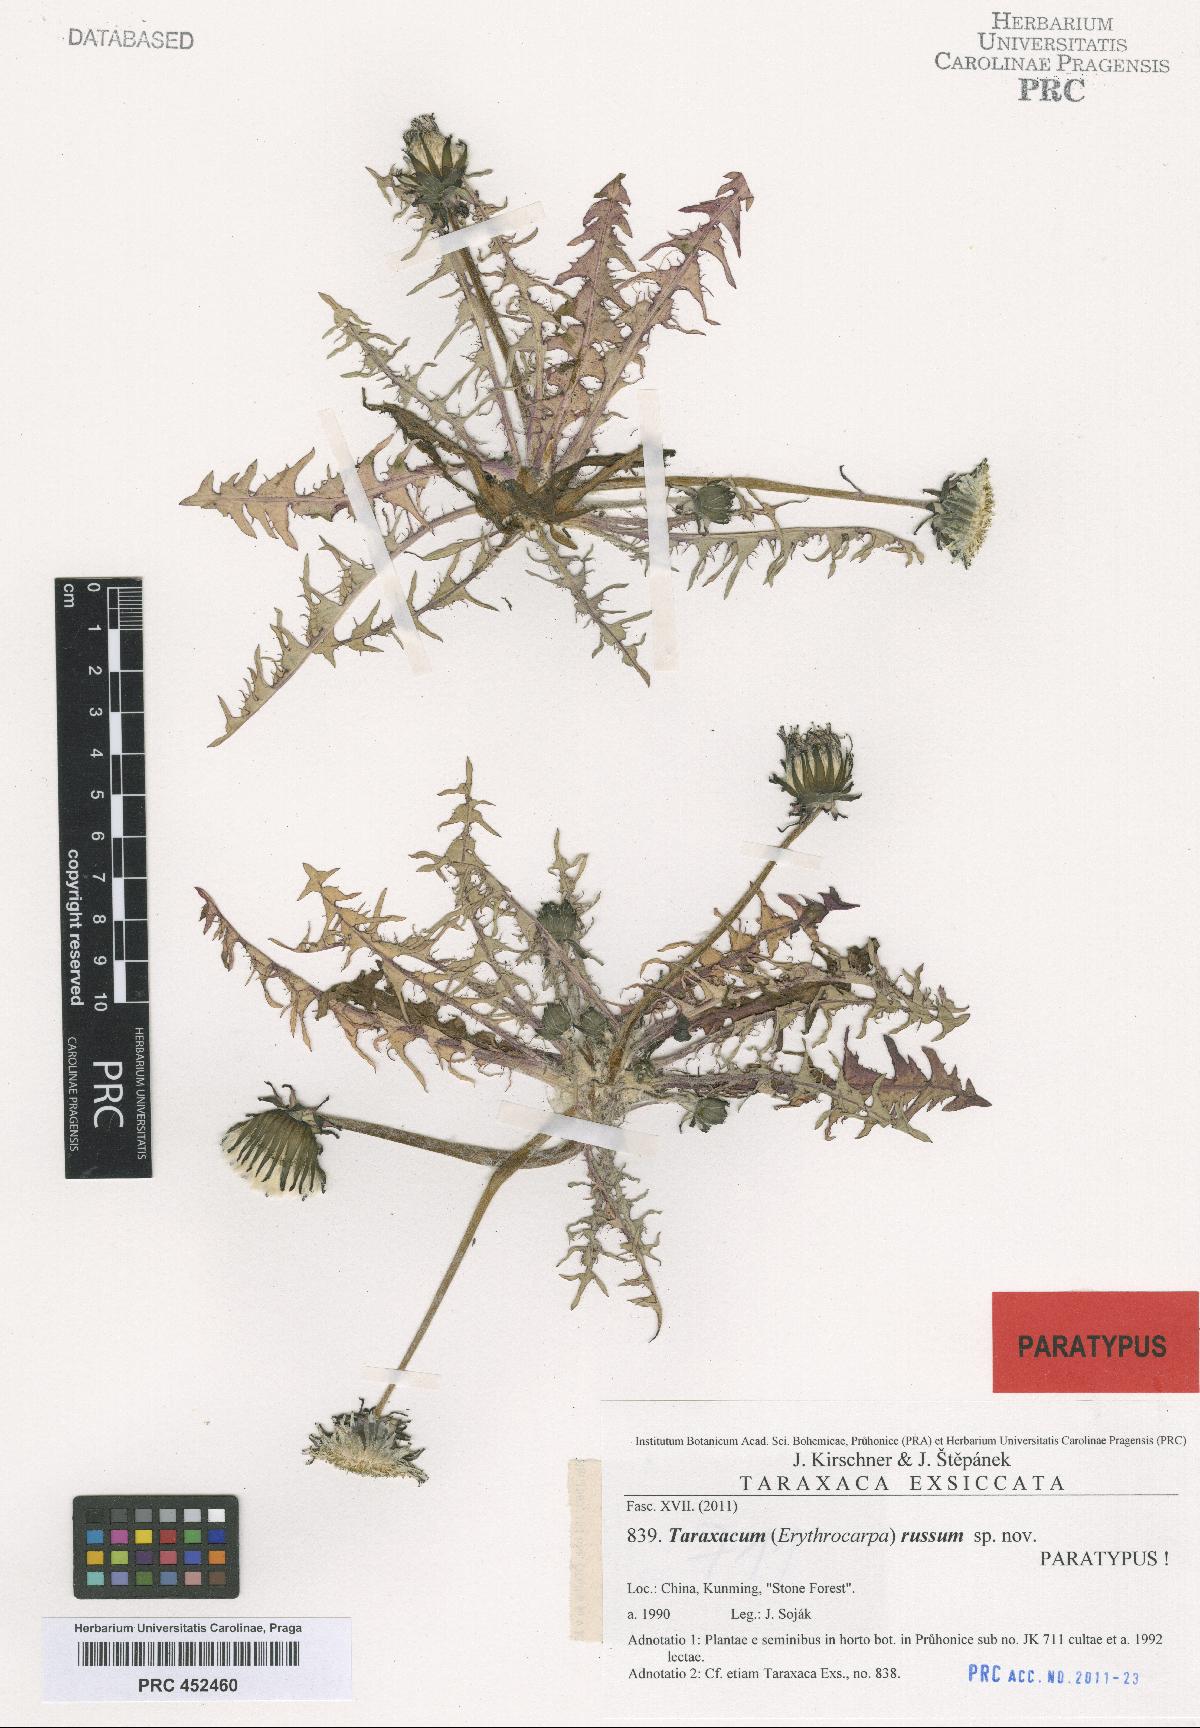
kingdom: Plantae
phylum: Tracheophyta
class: Magnoliopsida
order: Asterales
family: Asteraceae
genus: Taraxacum
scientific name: Taraxacum russum
